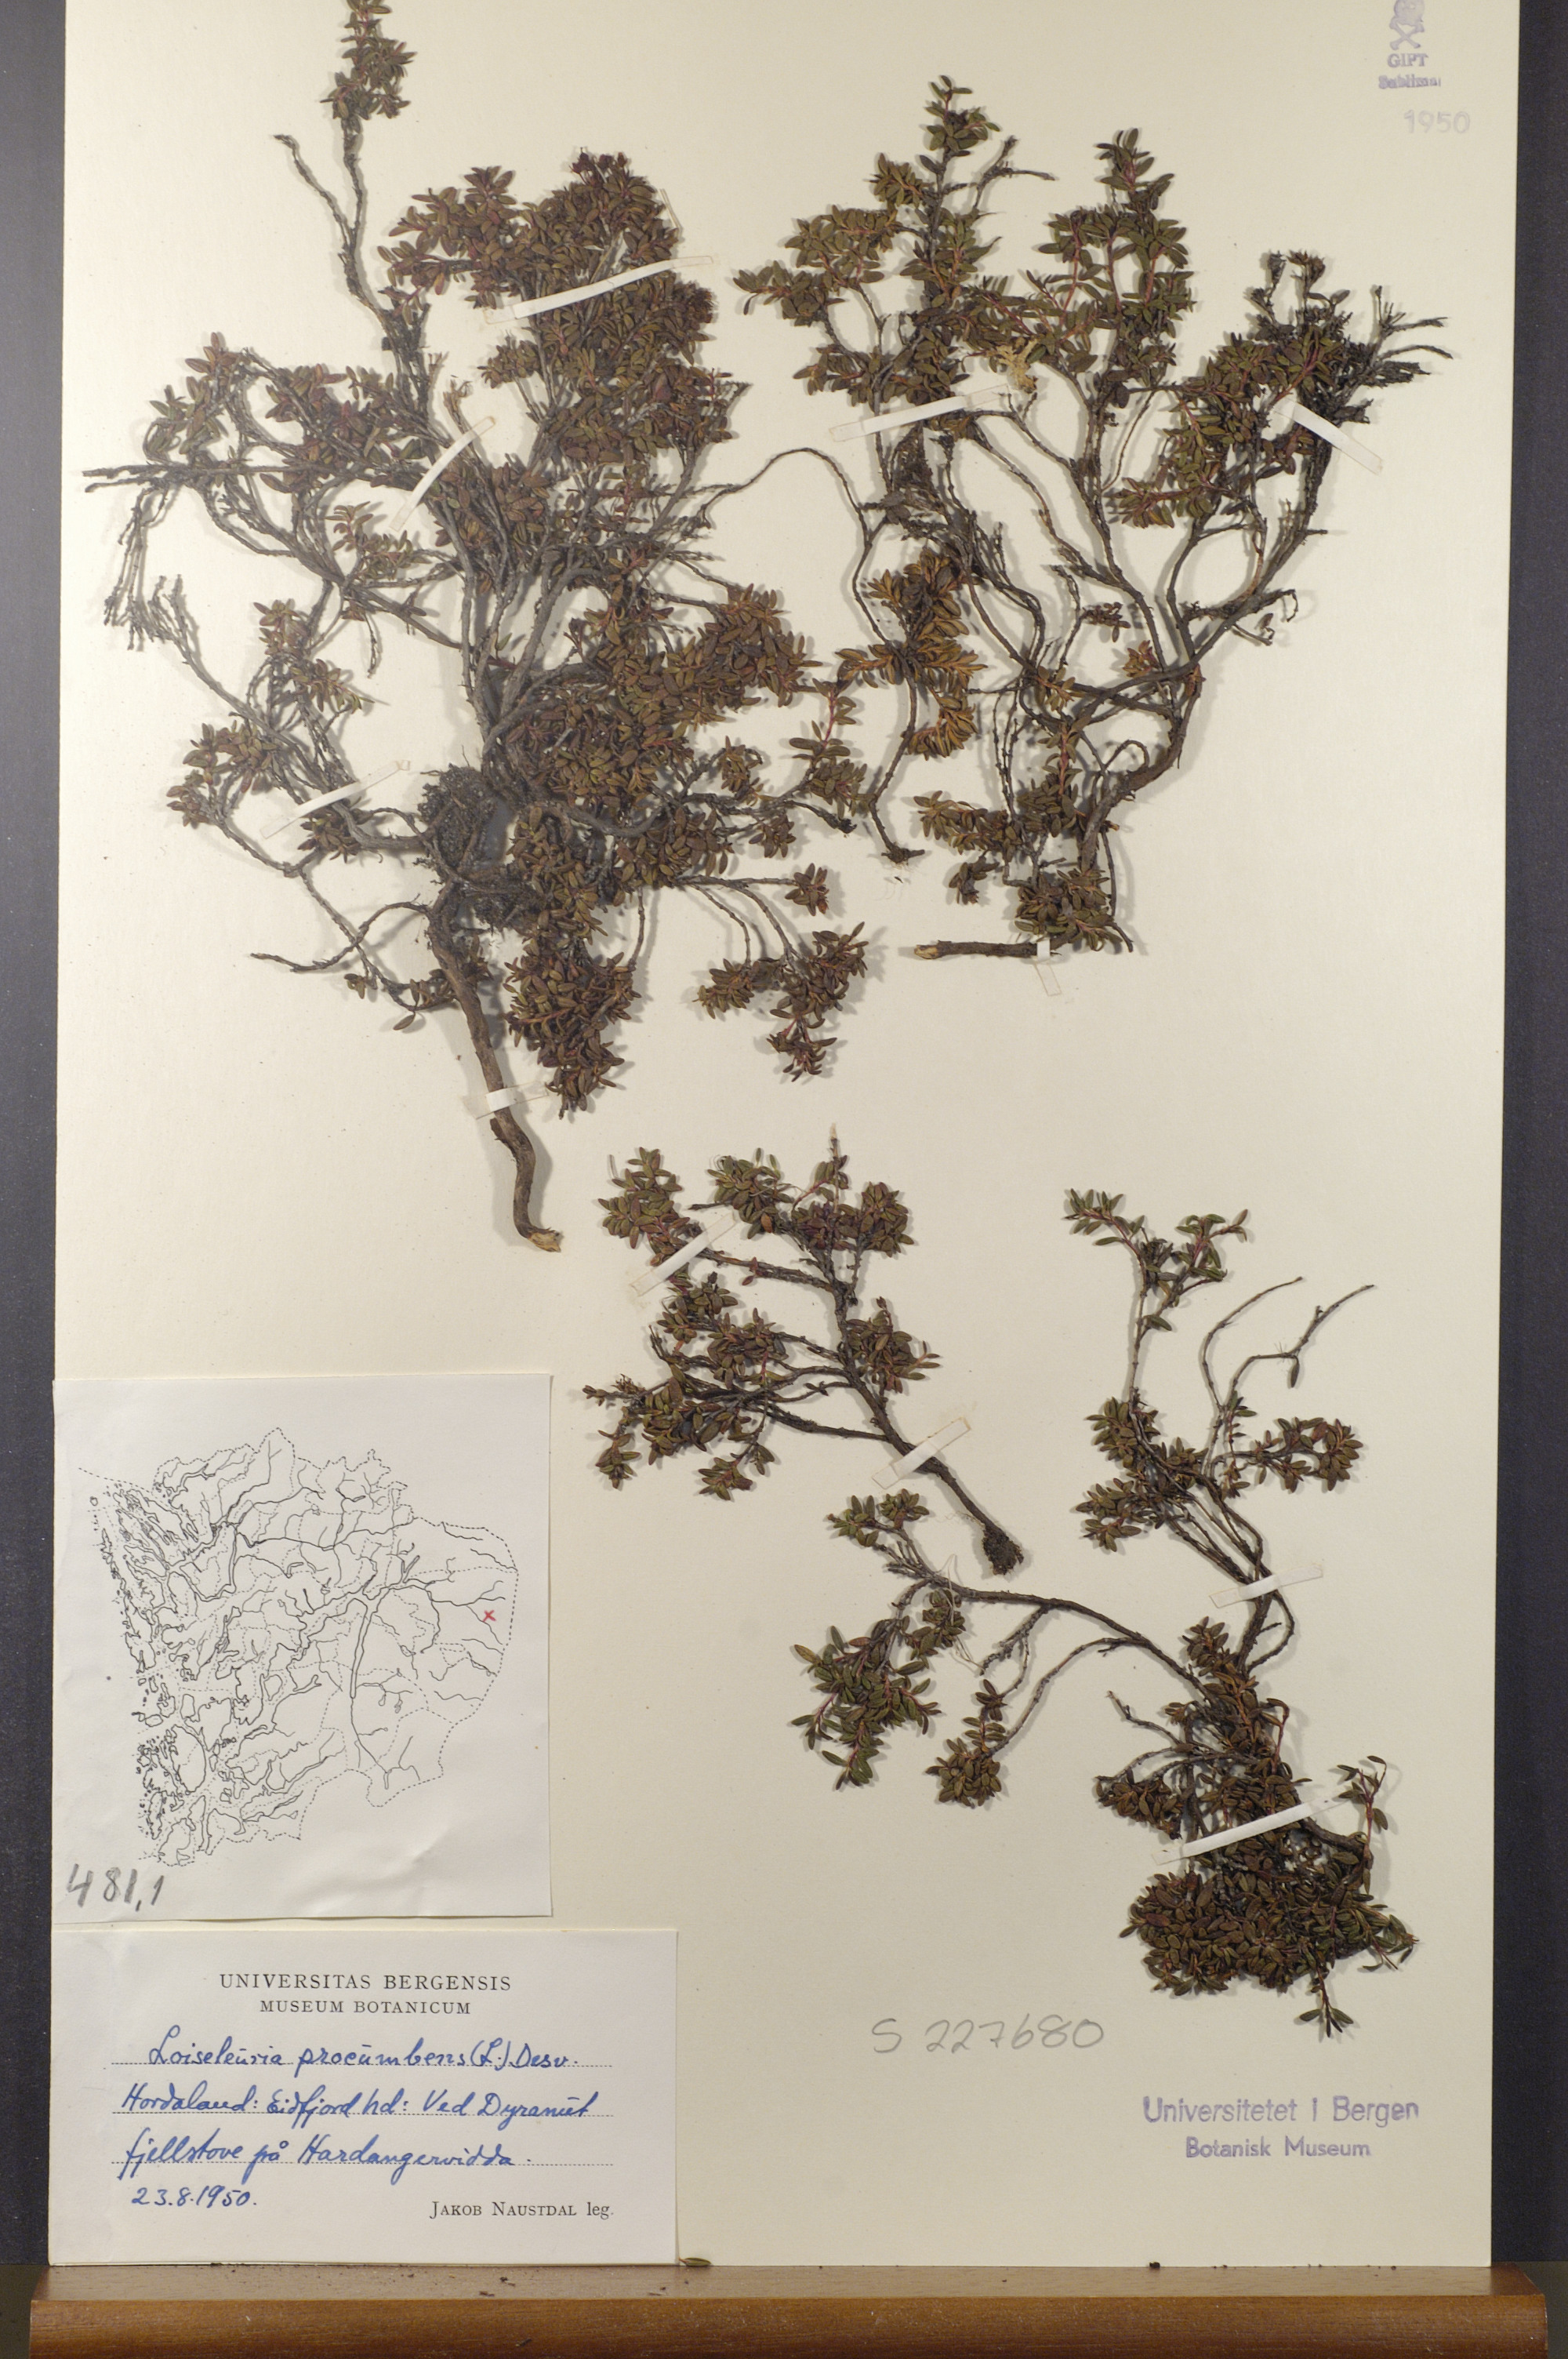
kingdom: Plantae
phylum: Tracheophyta
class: Magnoliopsida
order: Ericales
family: Ericaceae
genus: Kalmia
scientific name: Kalmia procumbens
